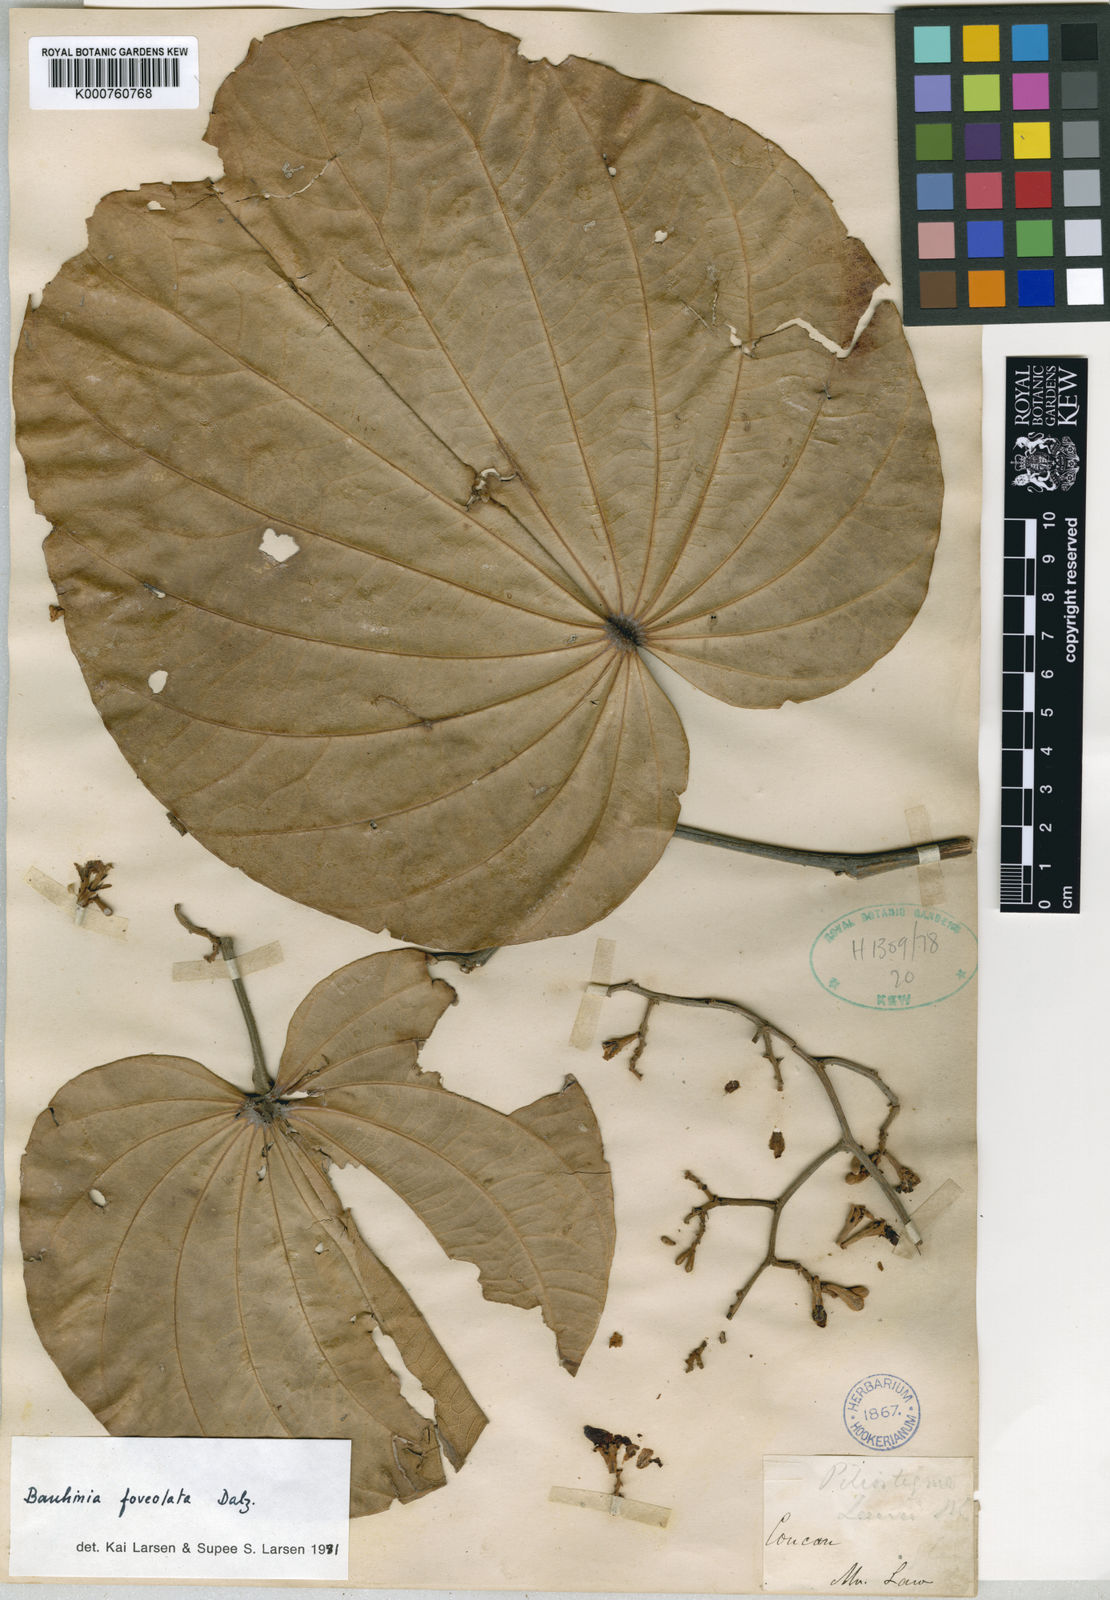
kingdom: Plantae
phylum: Tracheophyta
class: Magnoliopsida
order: Fabales
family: Fabaceae
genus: Piliostigma
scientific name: Piliostigma foveolatum
